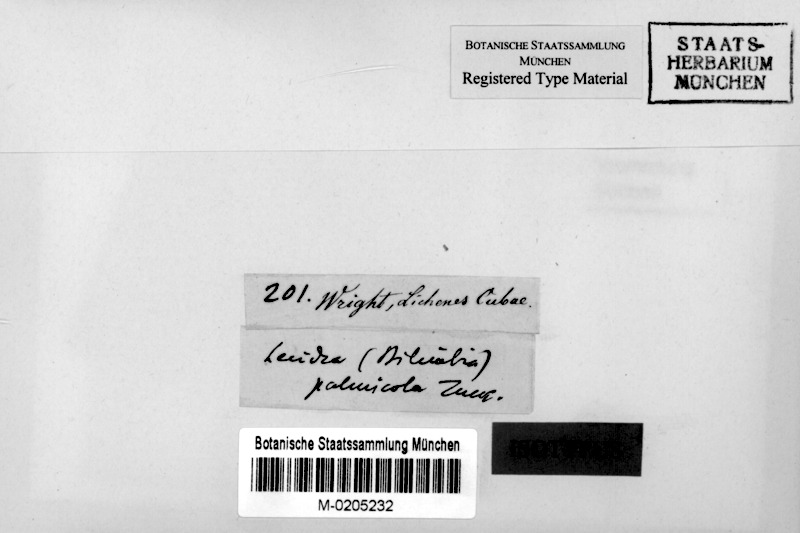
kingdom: Fungi
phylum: Ascomycota
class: Lecanoromycetes
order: Lecanorales
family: Ramalinaceae
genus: Badimia
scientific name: Badimia tuckermanii
